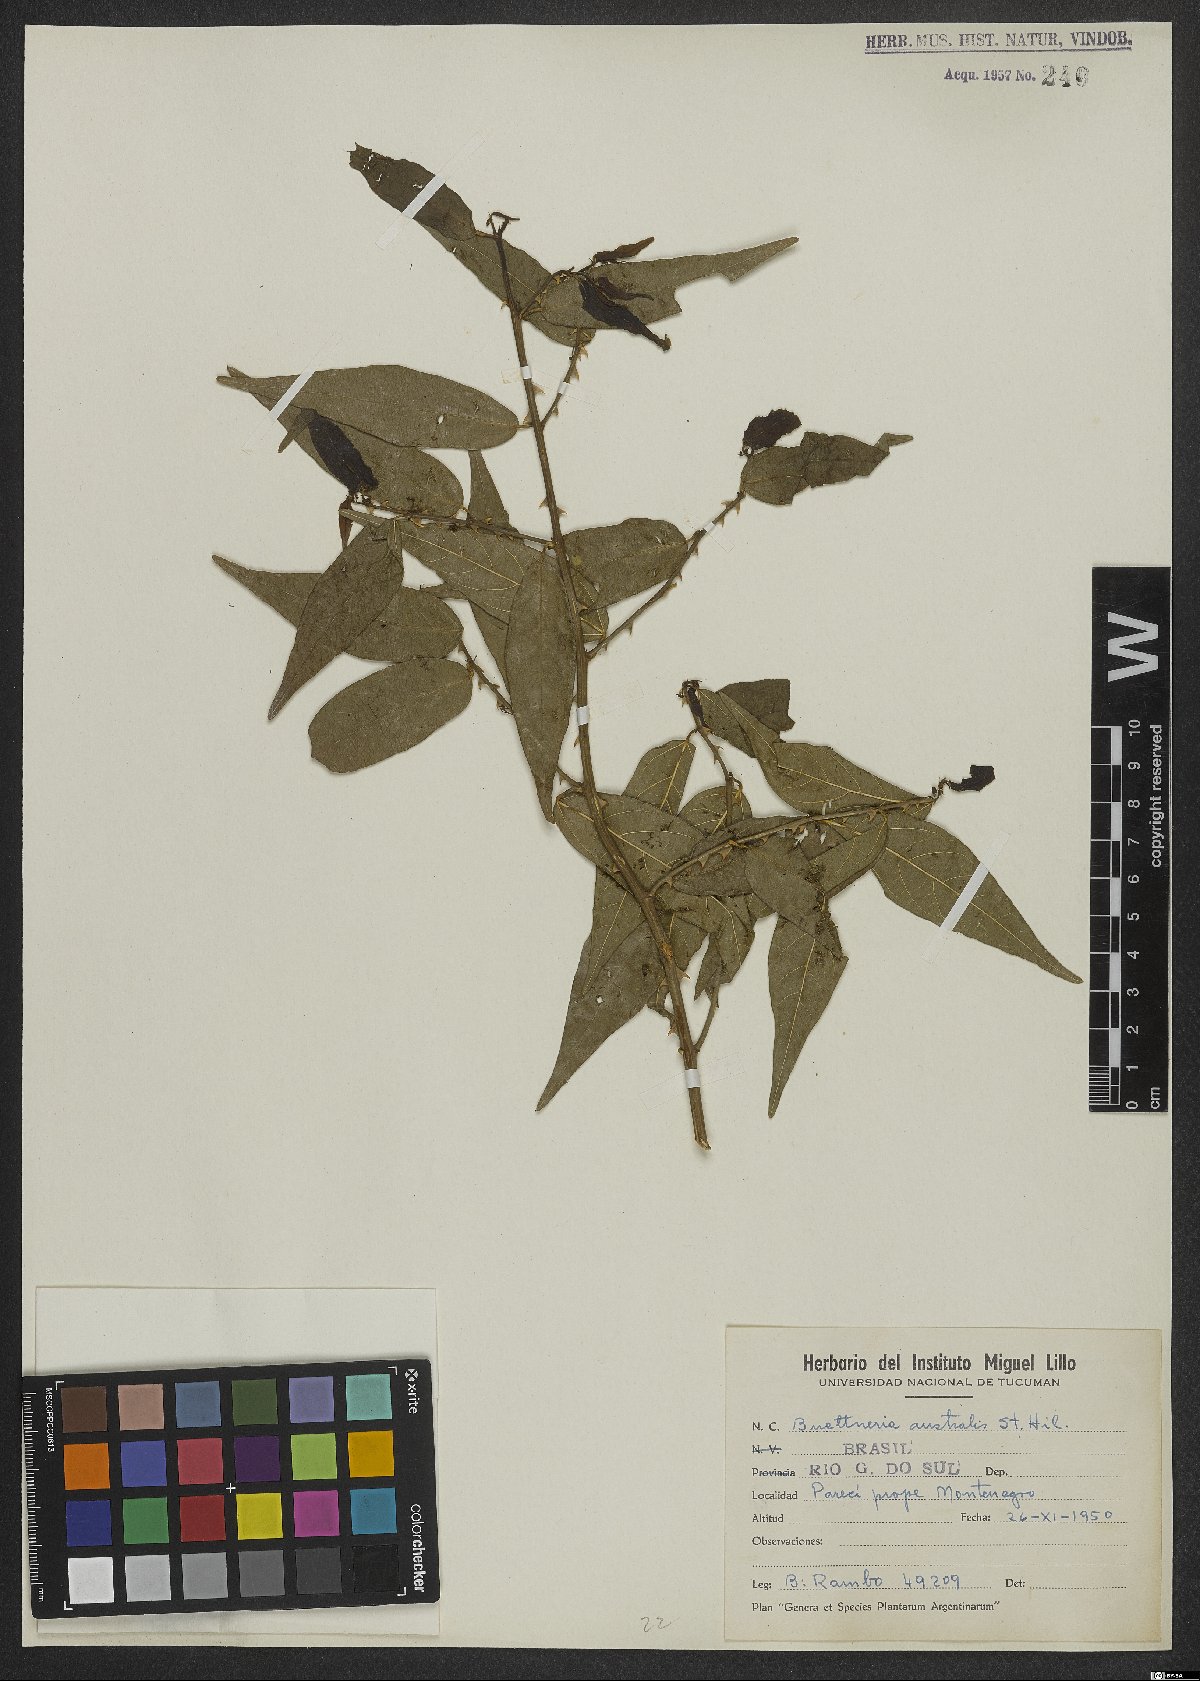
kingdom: Plantae
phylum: Tracheophyta
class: Magnoliopsida
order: Malvales
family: Malvaceae
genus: Byttneria
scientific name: Byttneria australis
